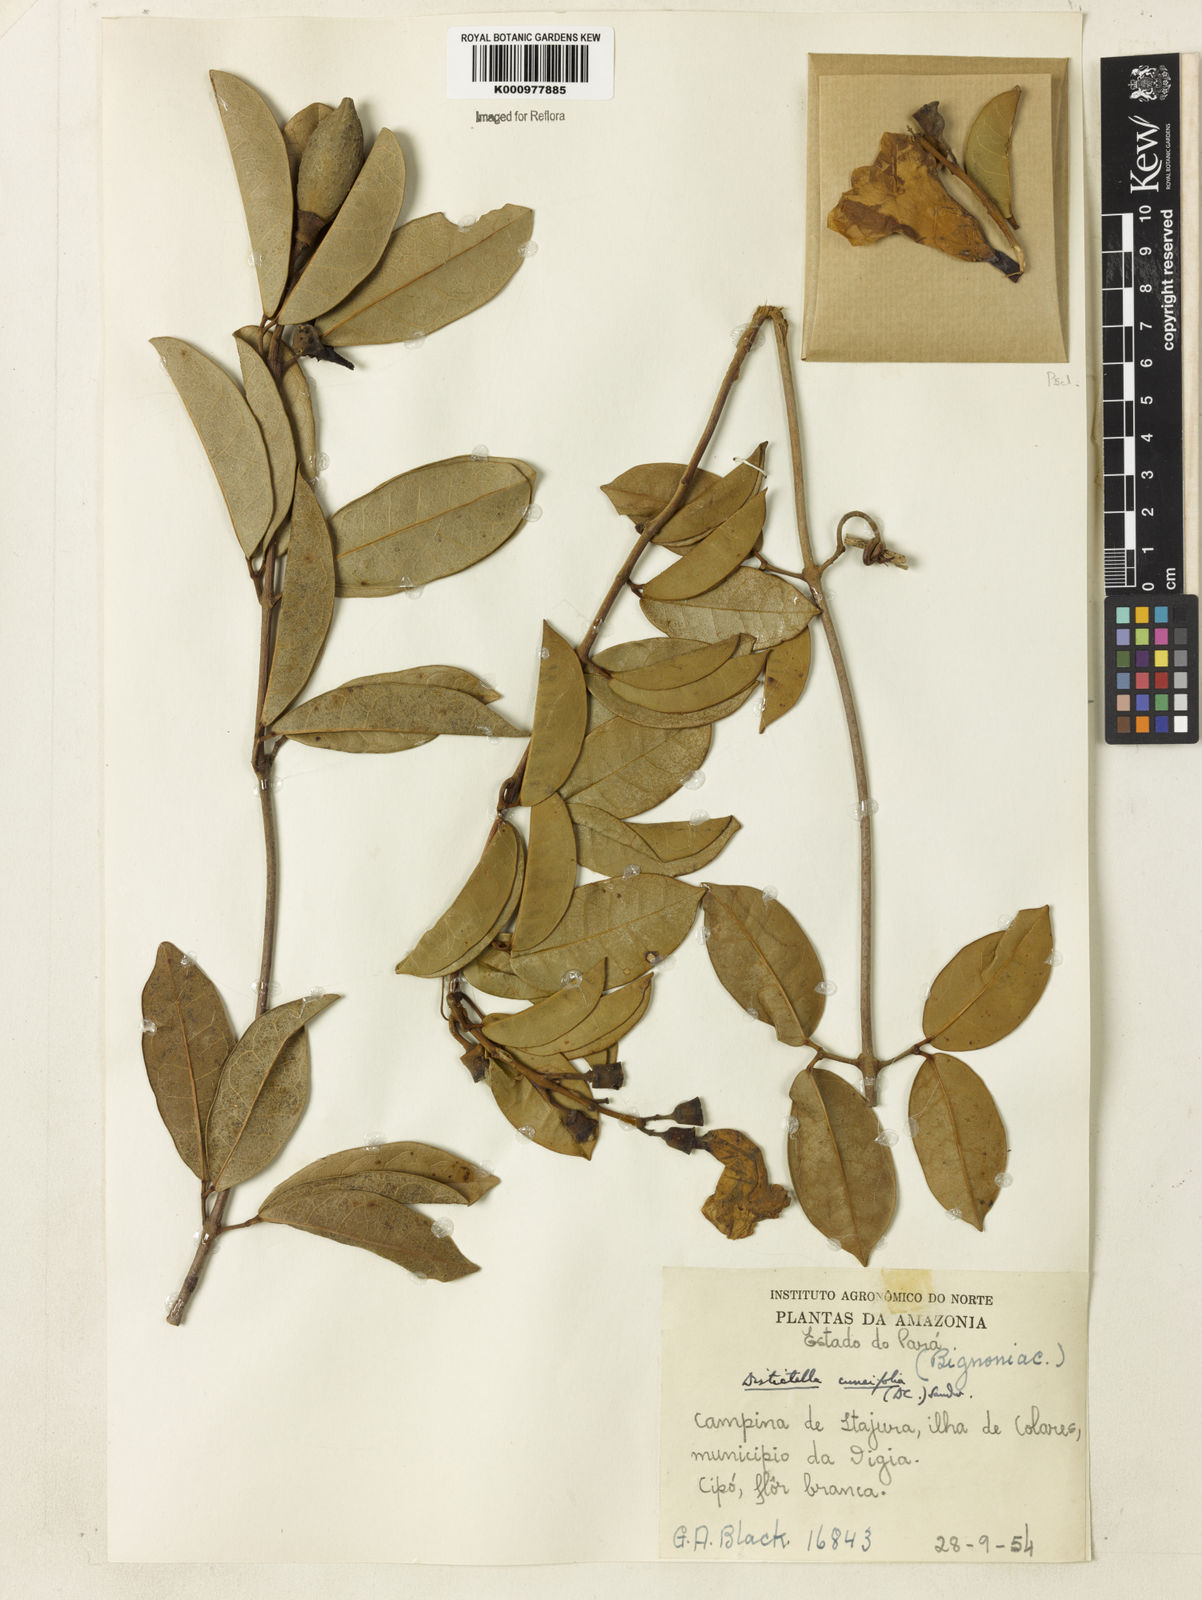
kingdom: Plantae
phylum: Tracheophyta
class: Magnoliopsida
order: Lamiales
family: Bignoniaceae
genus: Amphilophium
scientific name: Amphilophium cuneifolium
